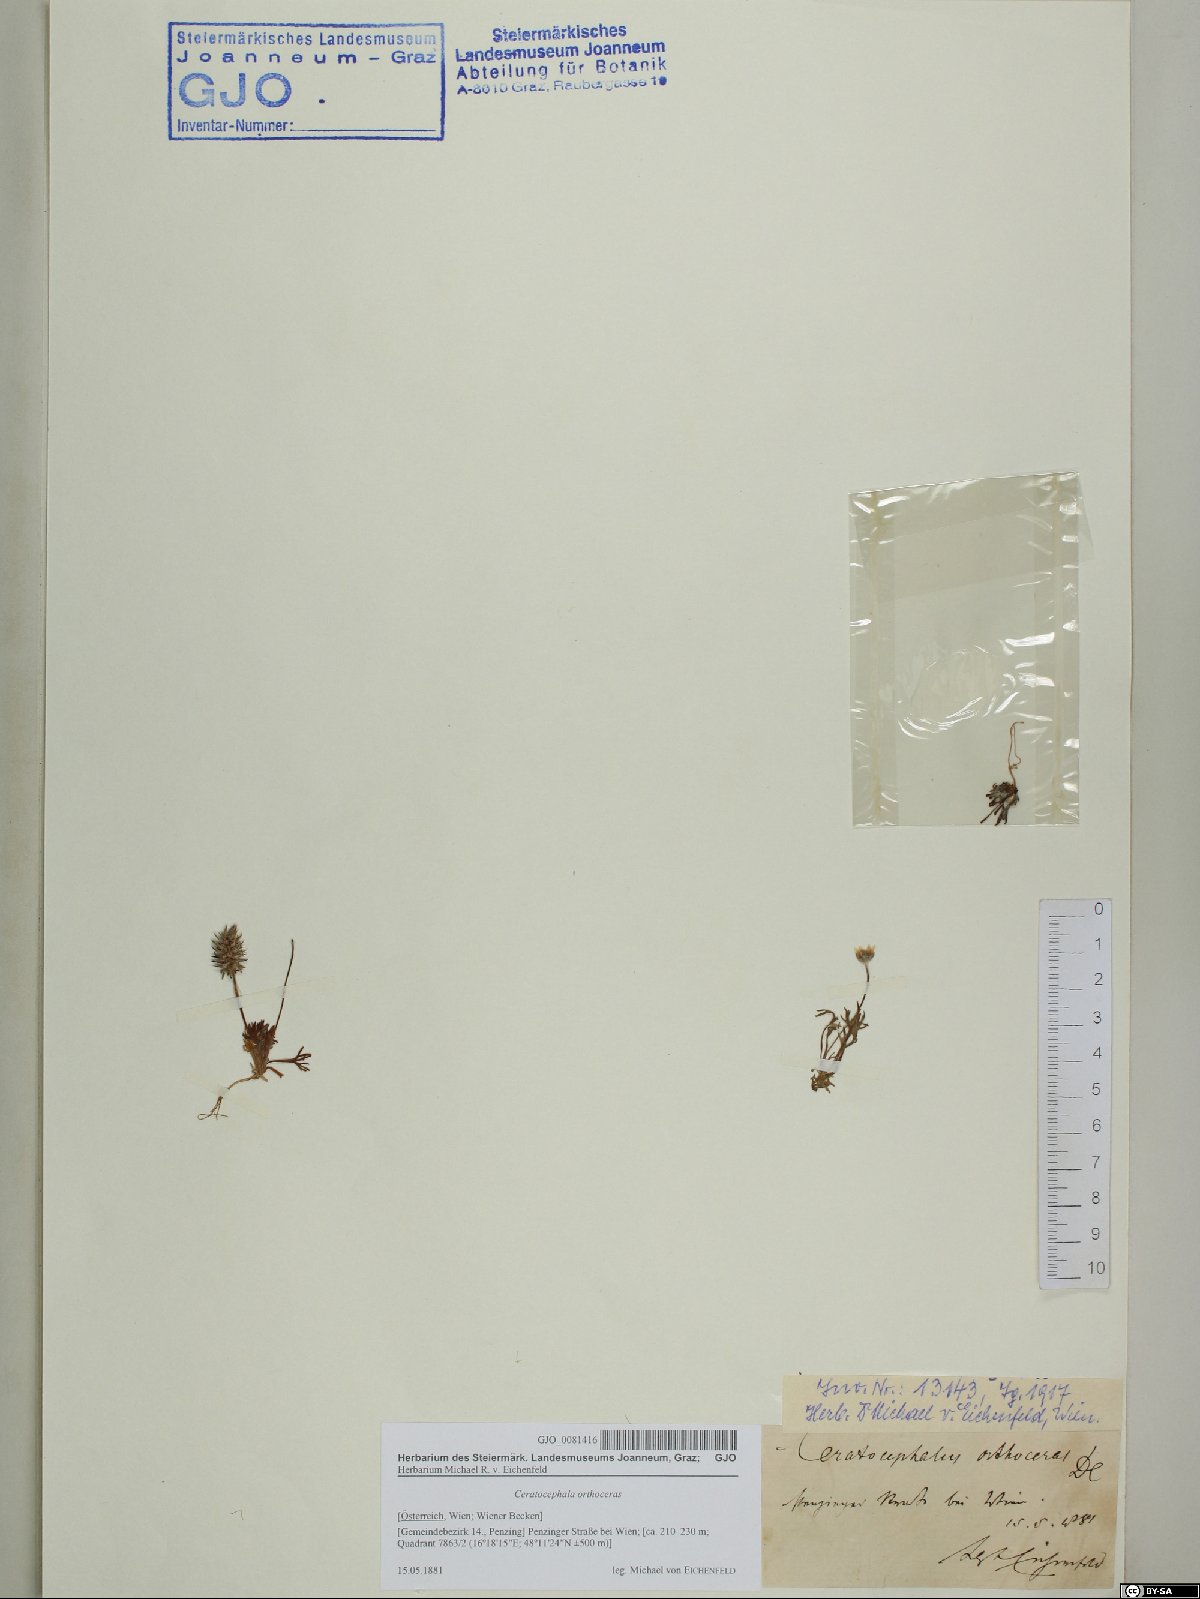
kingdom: Plantae
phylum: Tracheophyta
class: Magnoliopsida
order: Ranunculales
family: Ranunculaceae
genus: Ceratocephala
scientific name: Ceratocephala orthoceras
